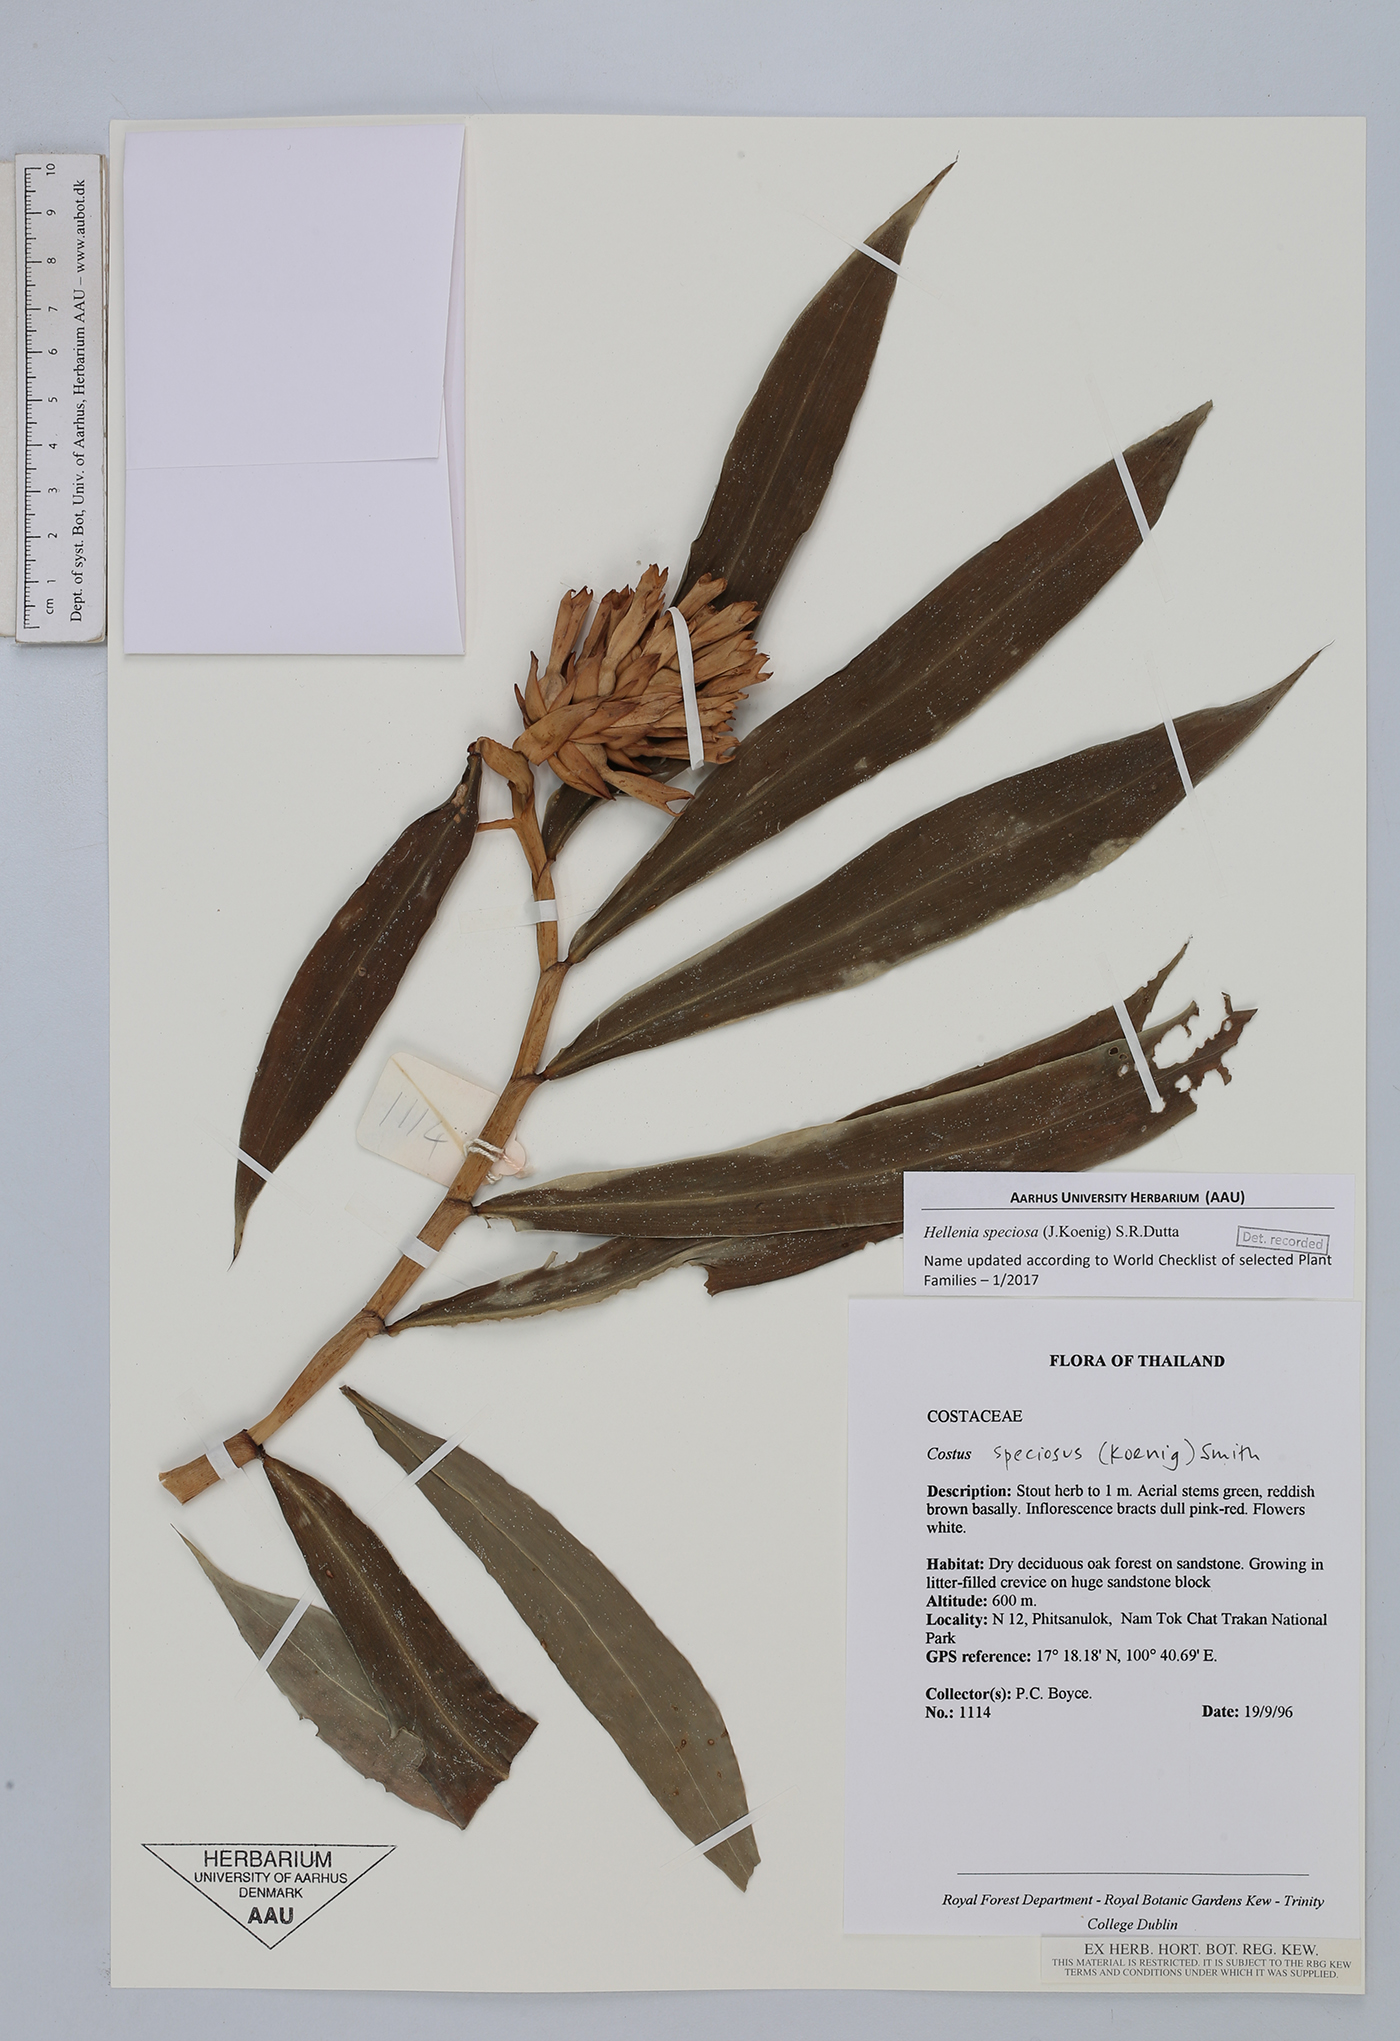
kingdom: Plantae
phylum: Tracheophyta
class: Liliopsida
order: Zingiberales
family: Costaceae
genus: Hellenia
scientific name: Hellenia speciosa
